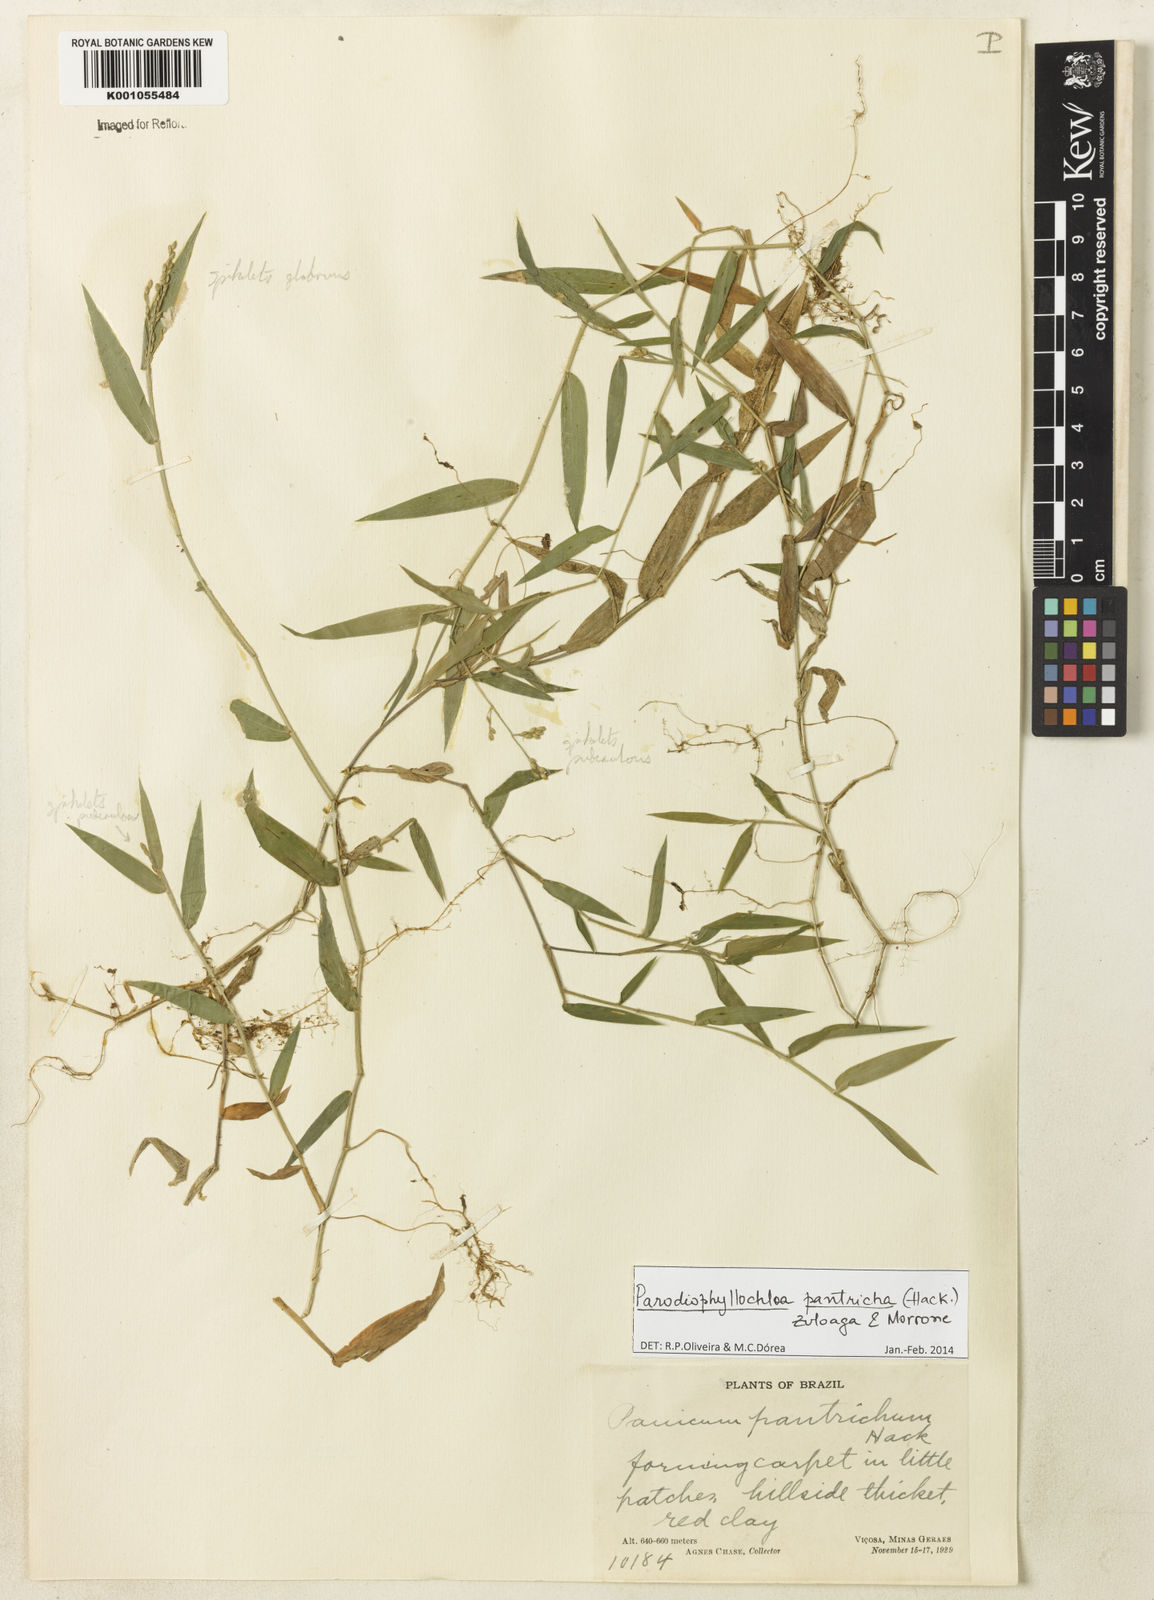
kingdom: Plantae
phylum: Tracheophyta
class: Liliopsida
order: Poales
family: Poaceae
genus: Parodiophyllochloa
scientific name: Parodiophyllochloa pantricha
